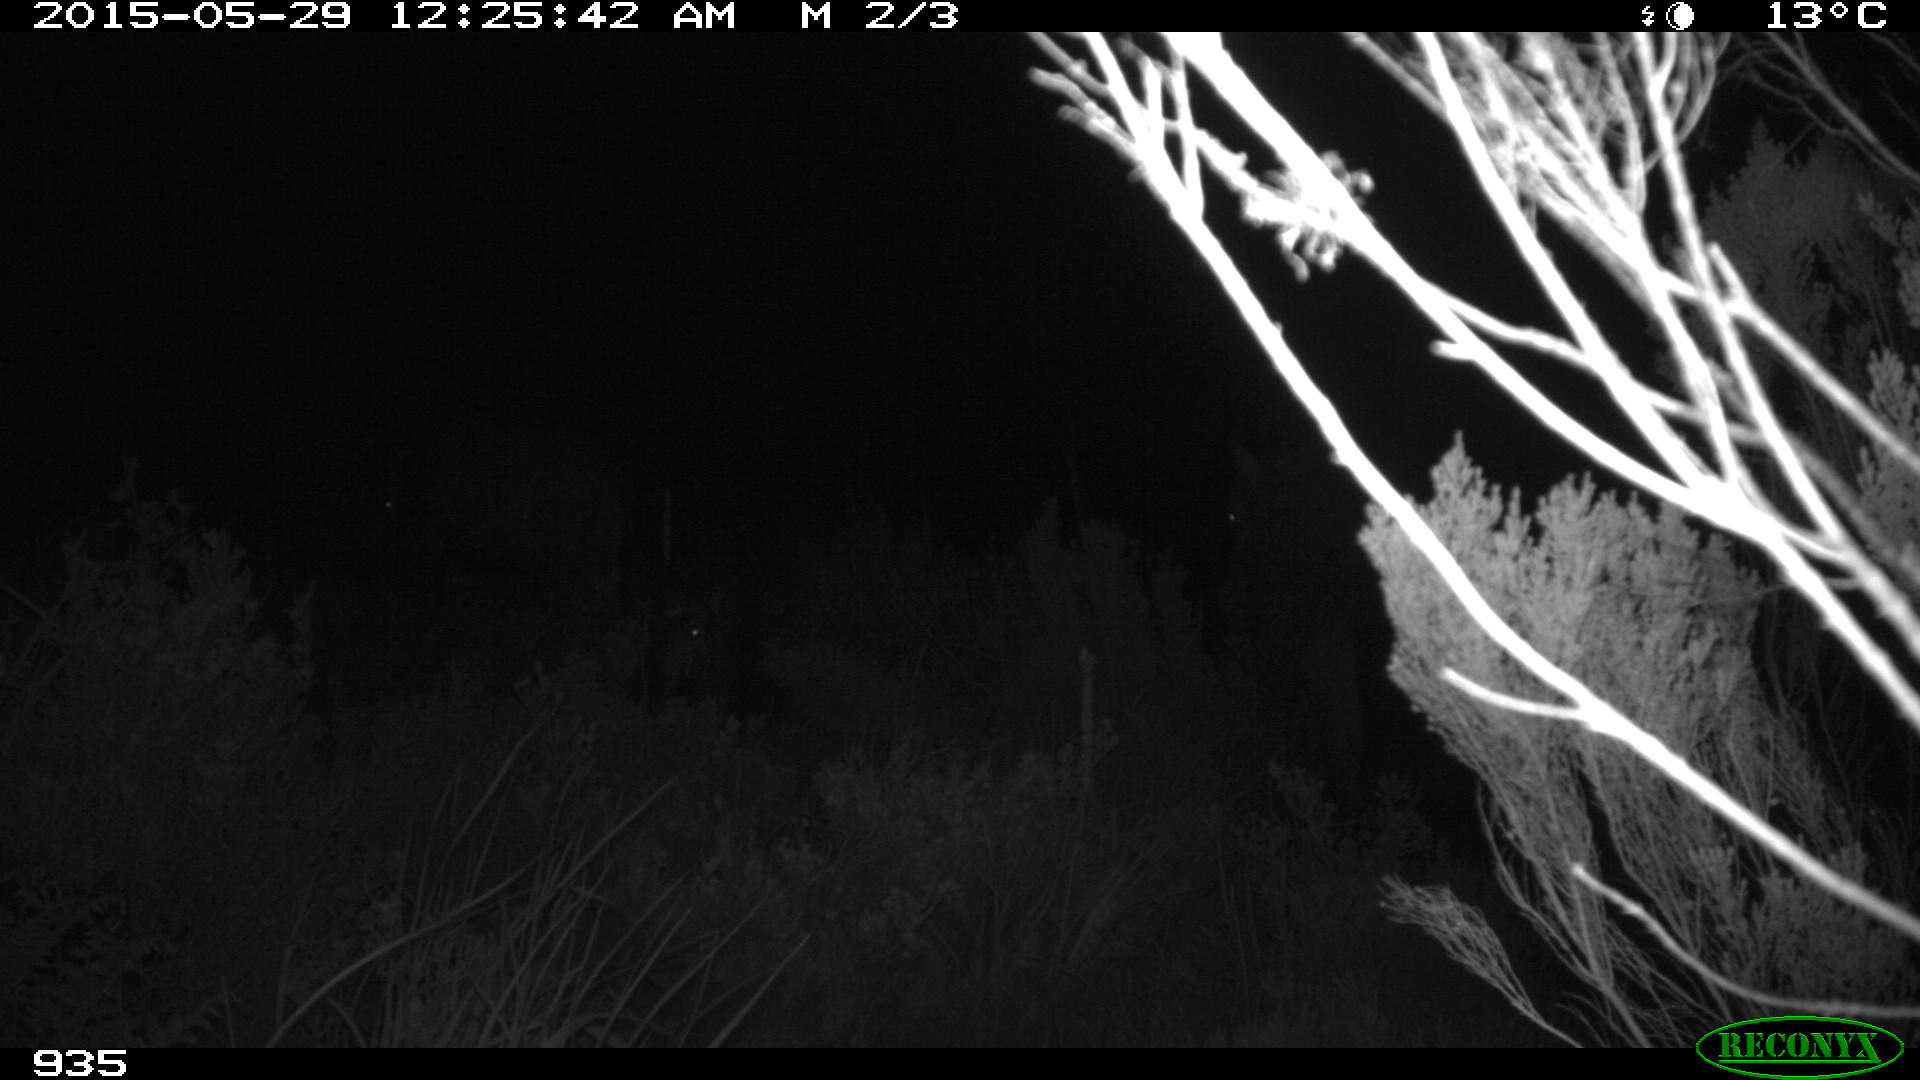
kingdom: Animalia
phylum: Chordata
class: Mammalia
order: Perissodactyla
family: Equidae
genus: Equus
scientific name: Equus caballus
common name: Horse
